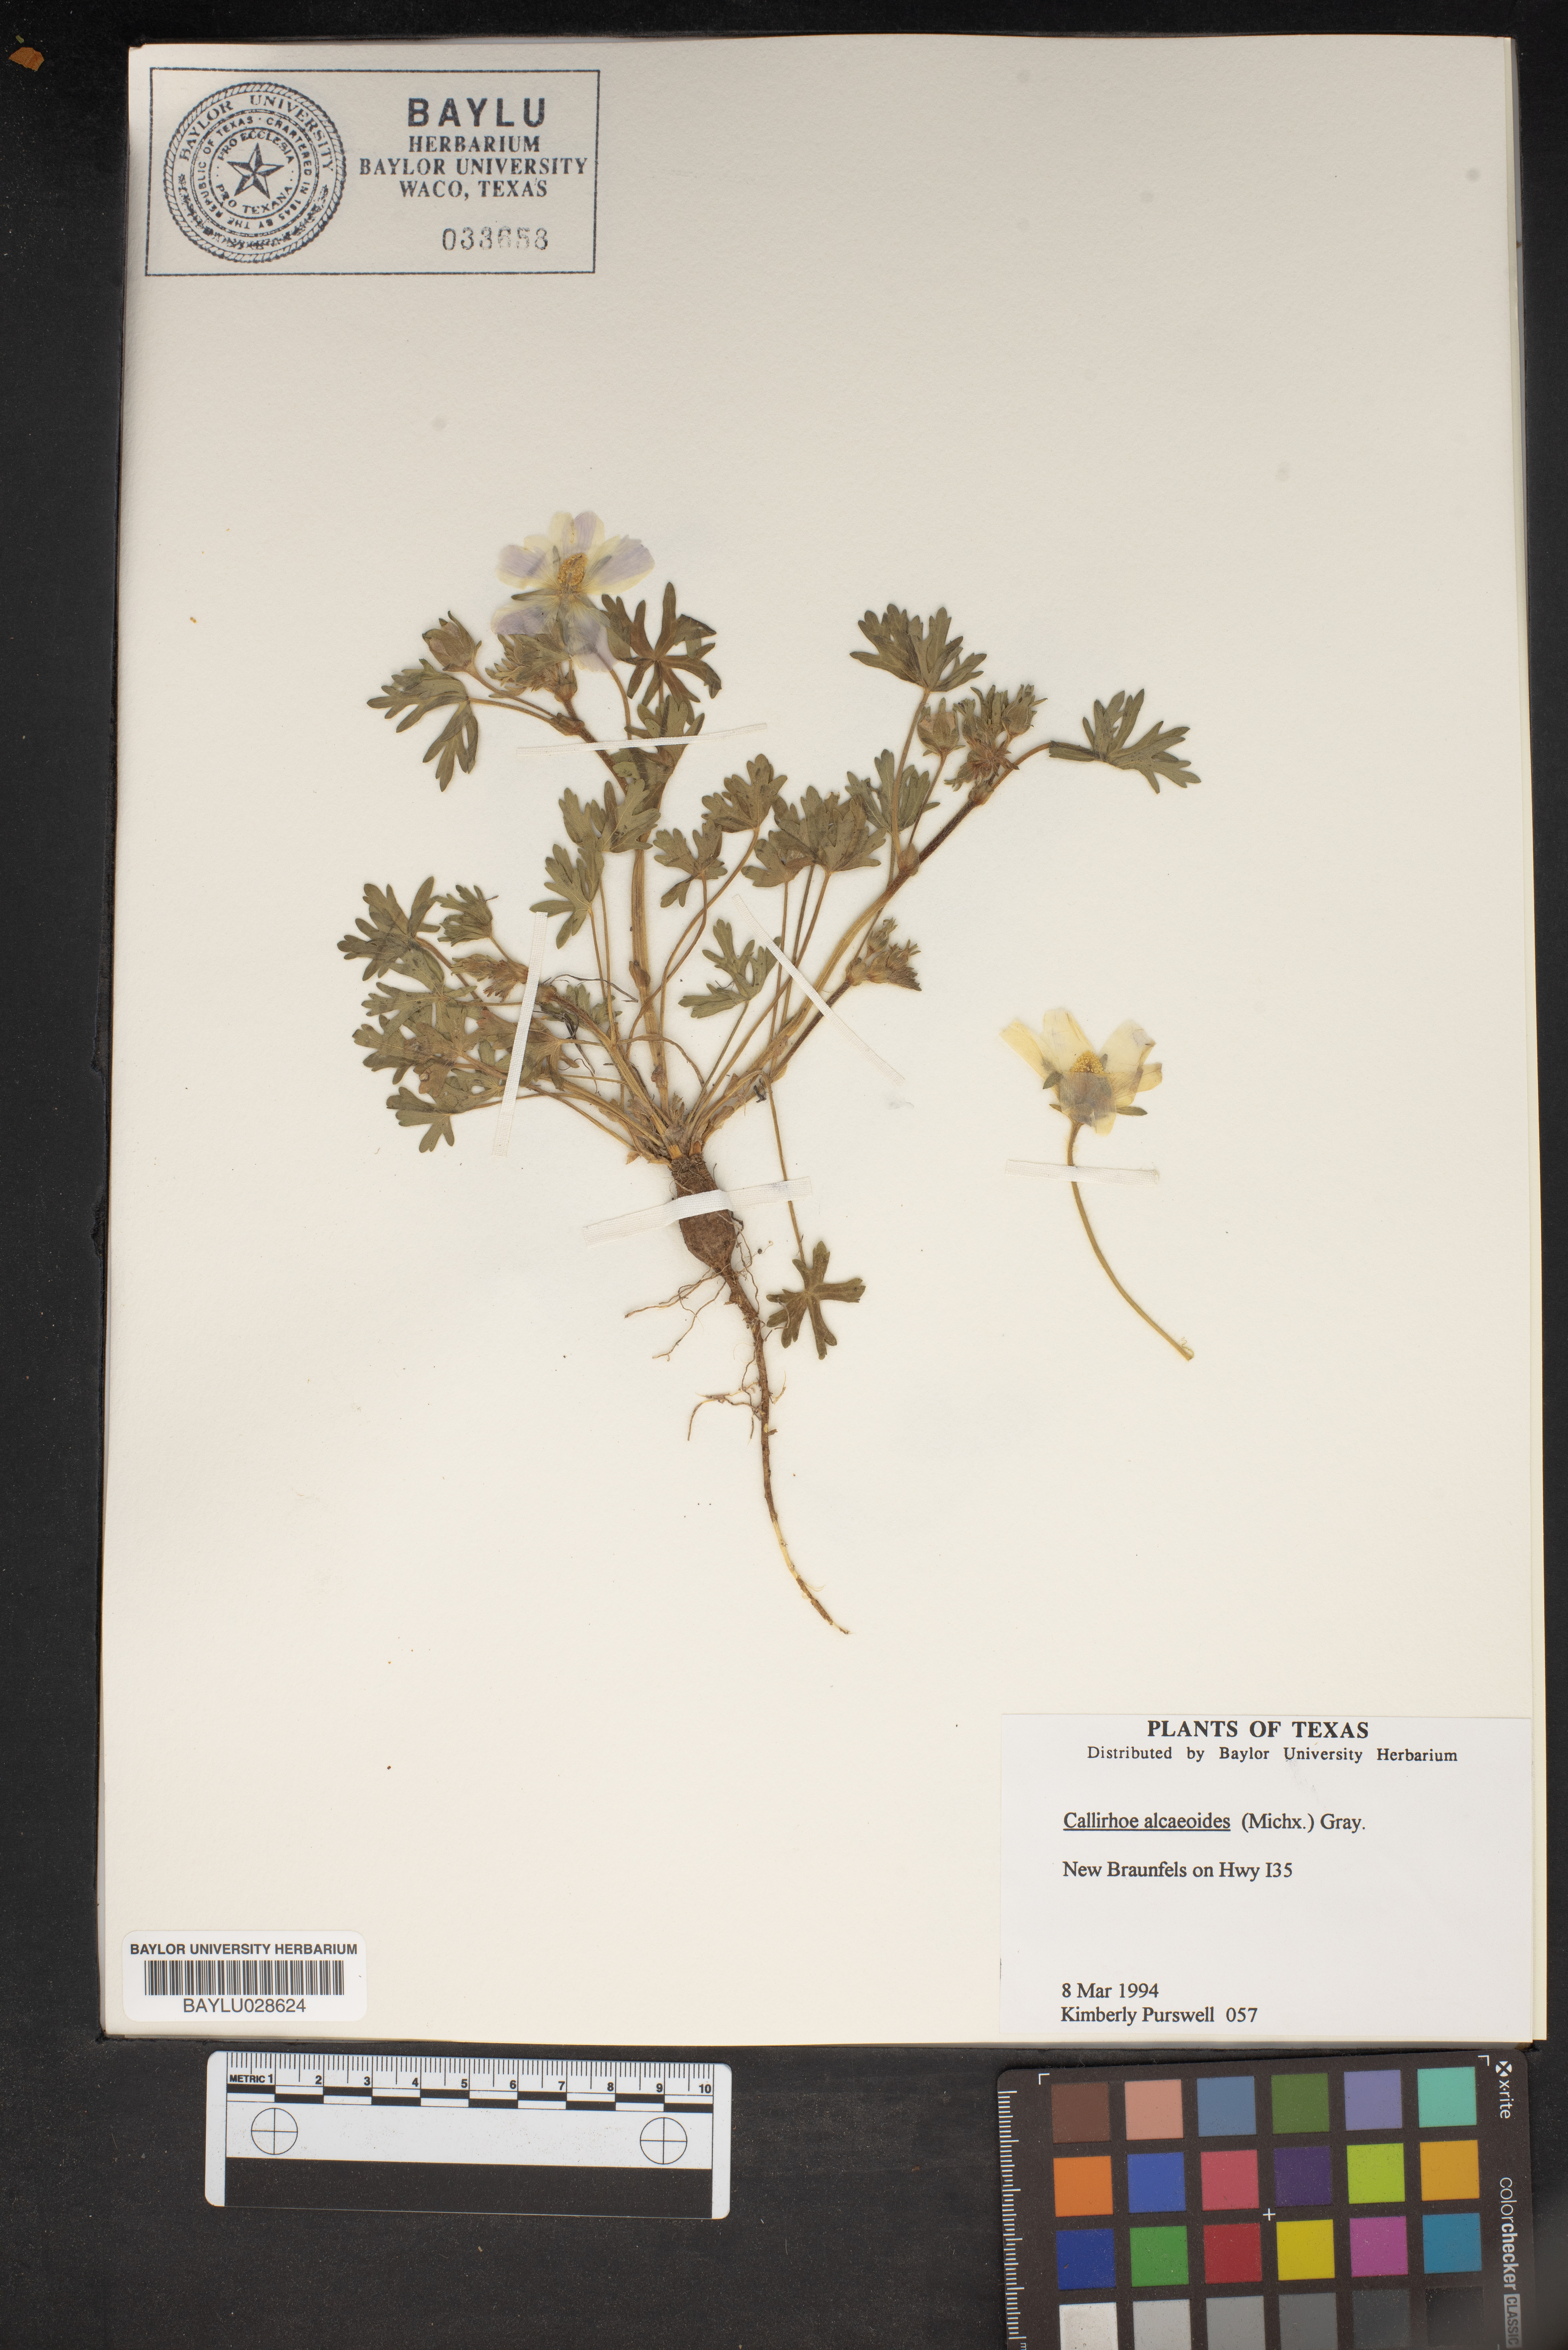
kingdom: Plantae
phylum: Tracheophyta
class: Magnoliopsida
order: Malvales
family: Malvaceae
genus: Callirhoe
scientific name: Callirhoe alcaeoides
